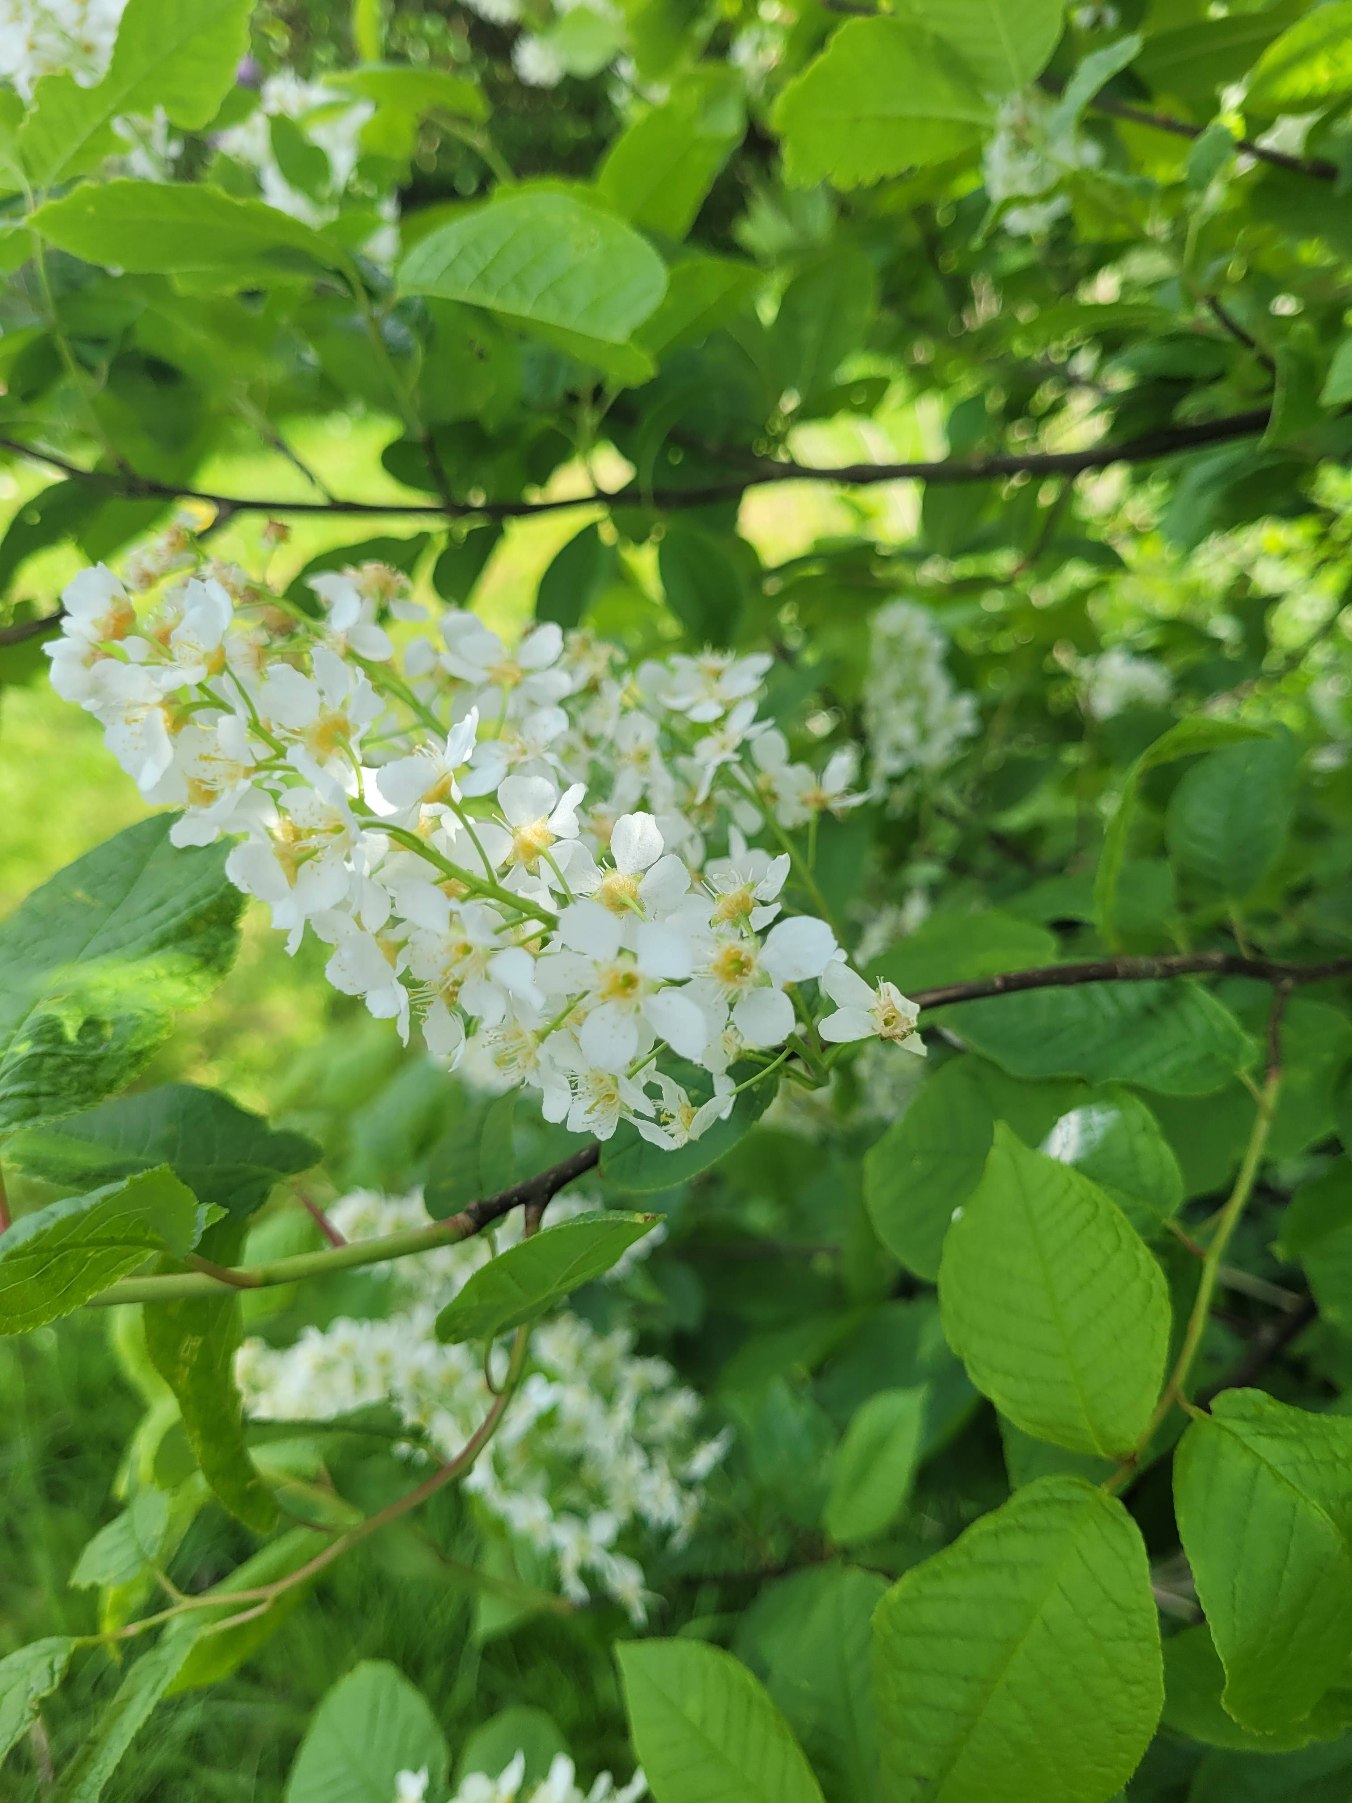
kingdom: Plantae
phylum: Tracheophyta
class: Magnoliopsida
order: Rosales
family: Rosaceae
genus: Prunus
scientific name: Prunus padus
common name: Almindelig hæg
